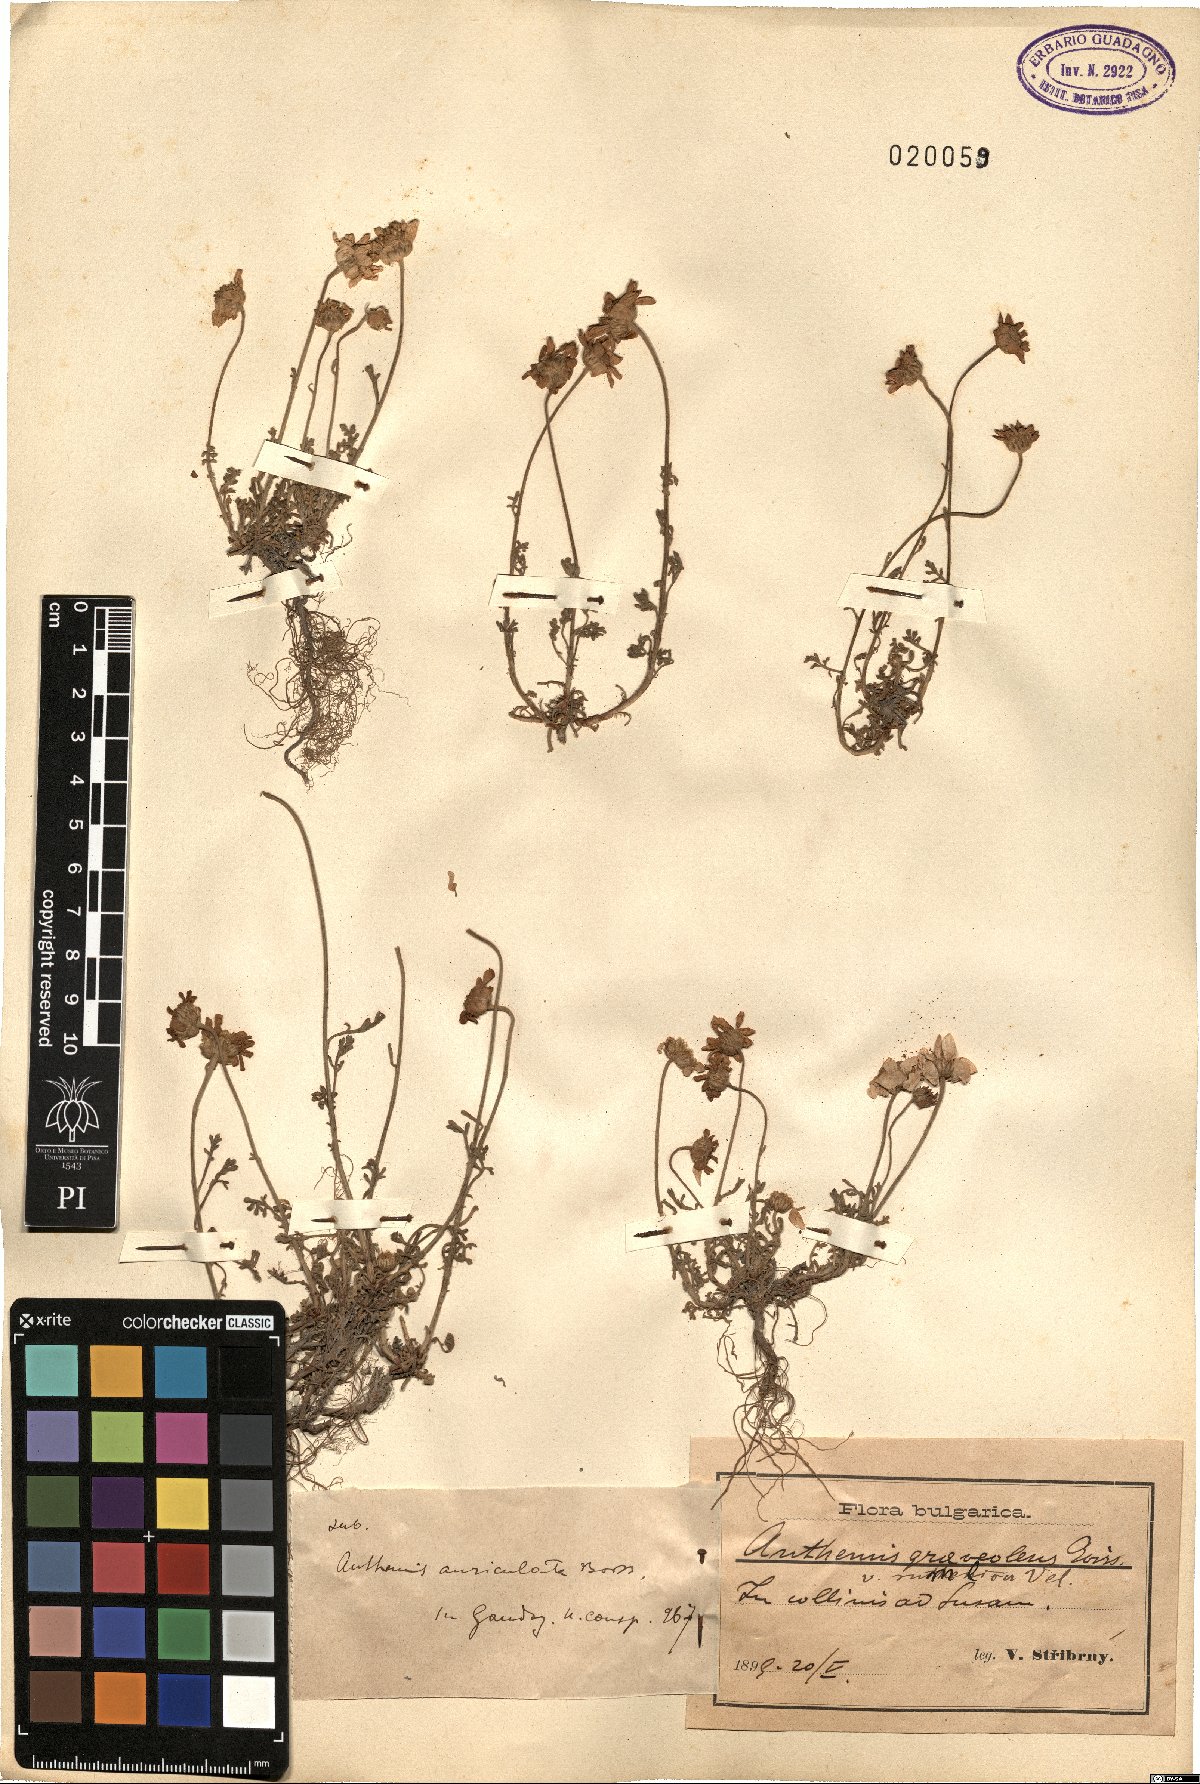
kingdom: Plantae
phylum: Tracheophyta
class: Magnoliopsida
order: Asterales
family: Asteraceae
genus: Anthemis
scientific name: Anthemis auriculata
